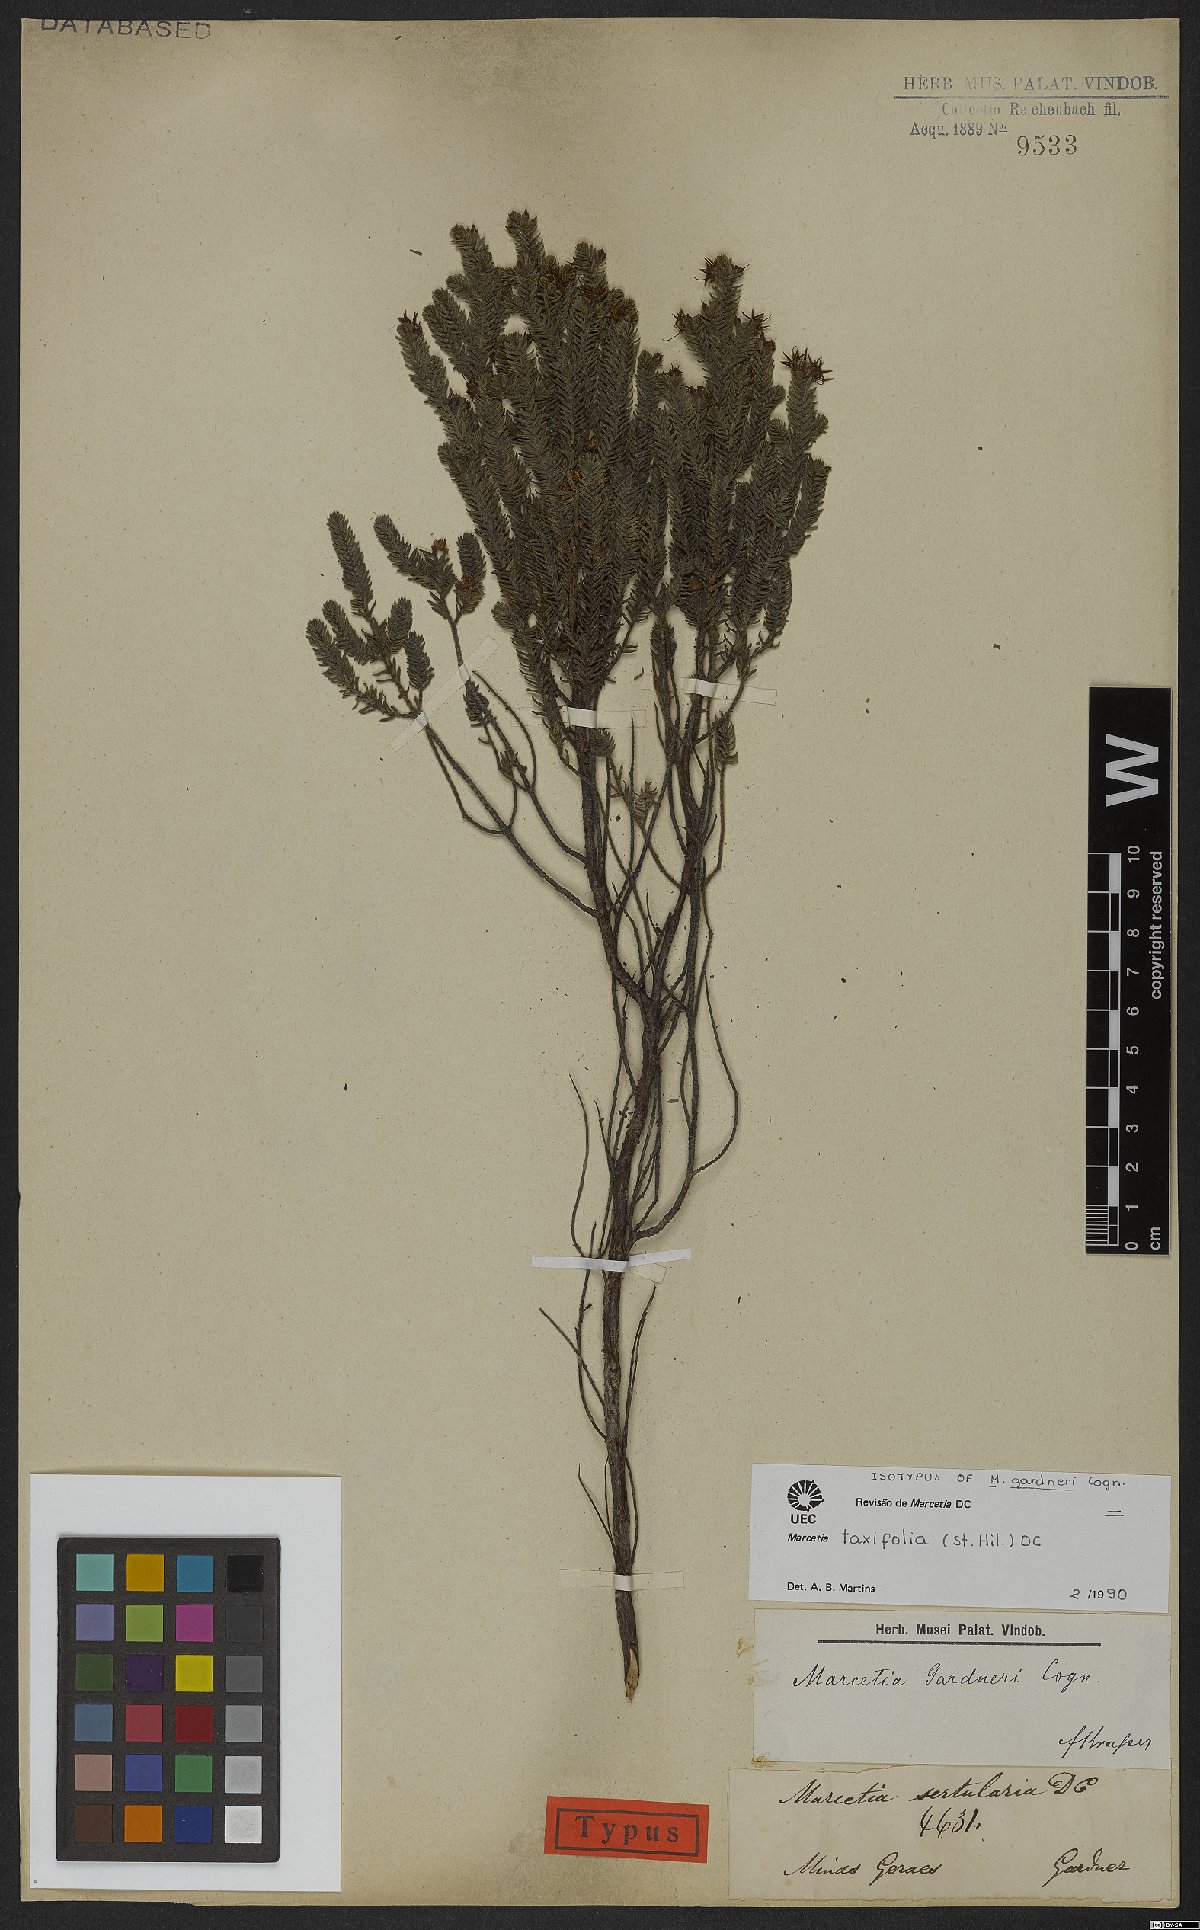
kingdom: Plantae
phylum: Tracheophyta
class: Magnoliopsida
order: Myrtales
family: Melastomataceae
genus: Marcetia
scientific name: Marcetia taxifolia
